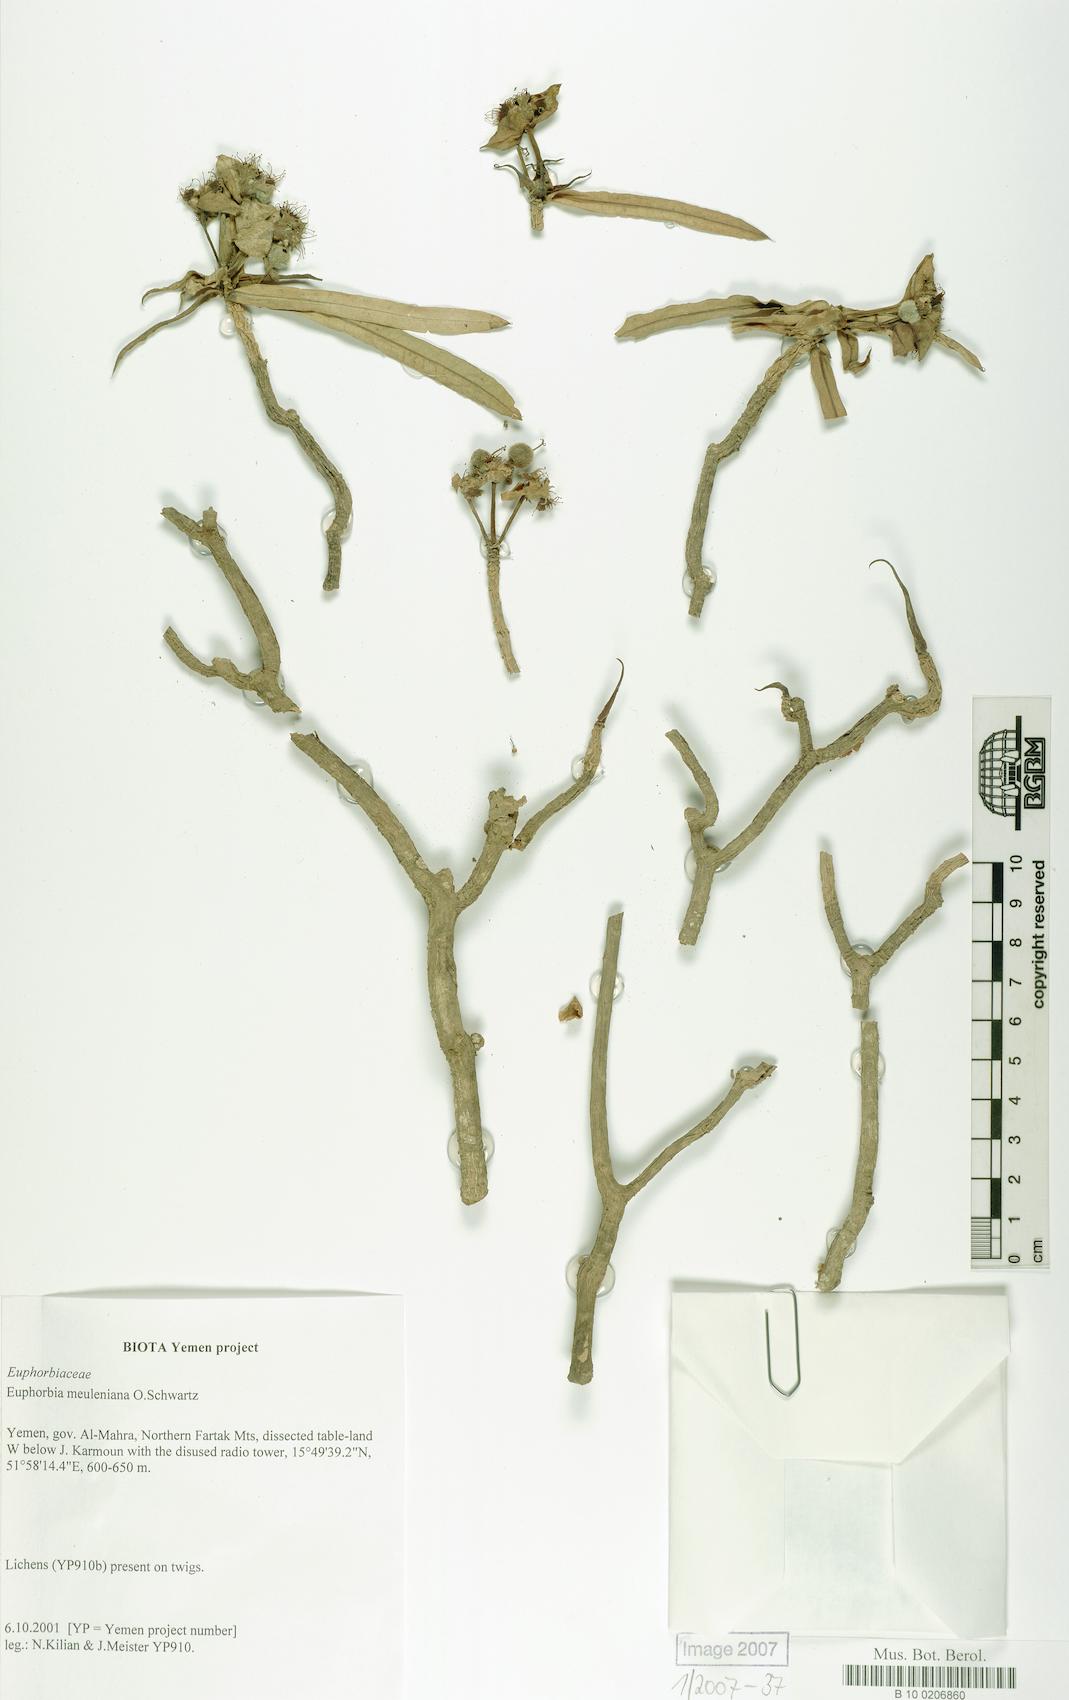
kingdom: Plantae
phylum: Tracheophyta
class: Magnoliopsida
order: Malpighiales
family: Euphorbiaceae
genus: Euphorbia
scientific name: Euphorbia meuleniana
